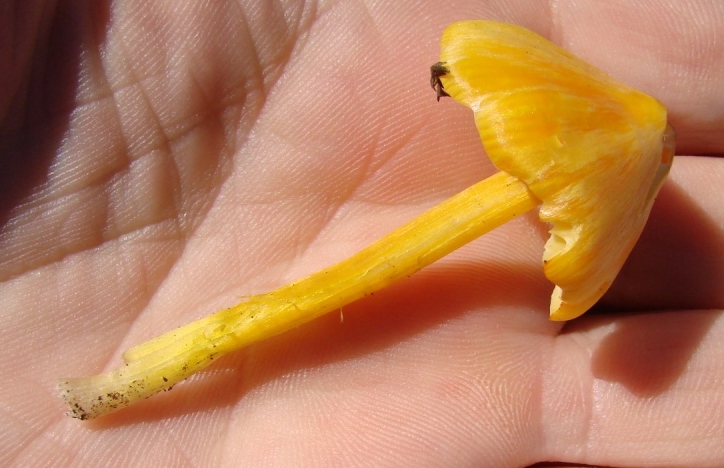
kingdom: Fungi
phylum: Basidiomycota
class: Agaricomycetes
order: Agaricales
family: Hygrophoraceae
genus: Hygrocybe
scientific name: Hygrocybe acutoconica
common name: spidspuklet vokshat
